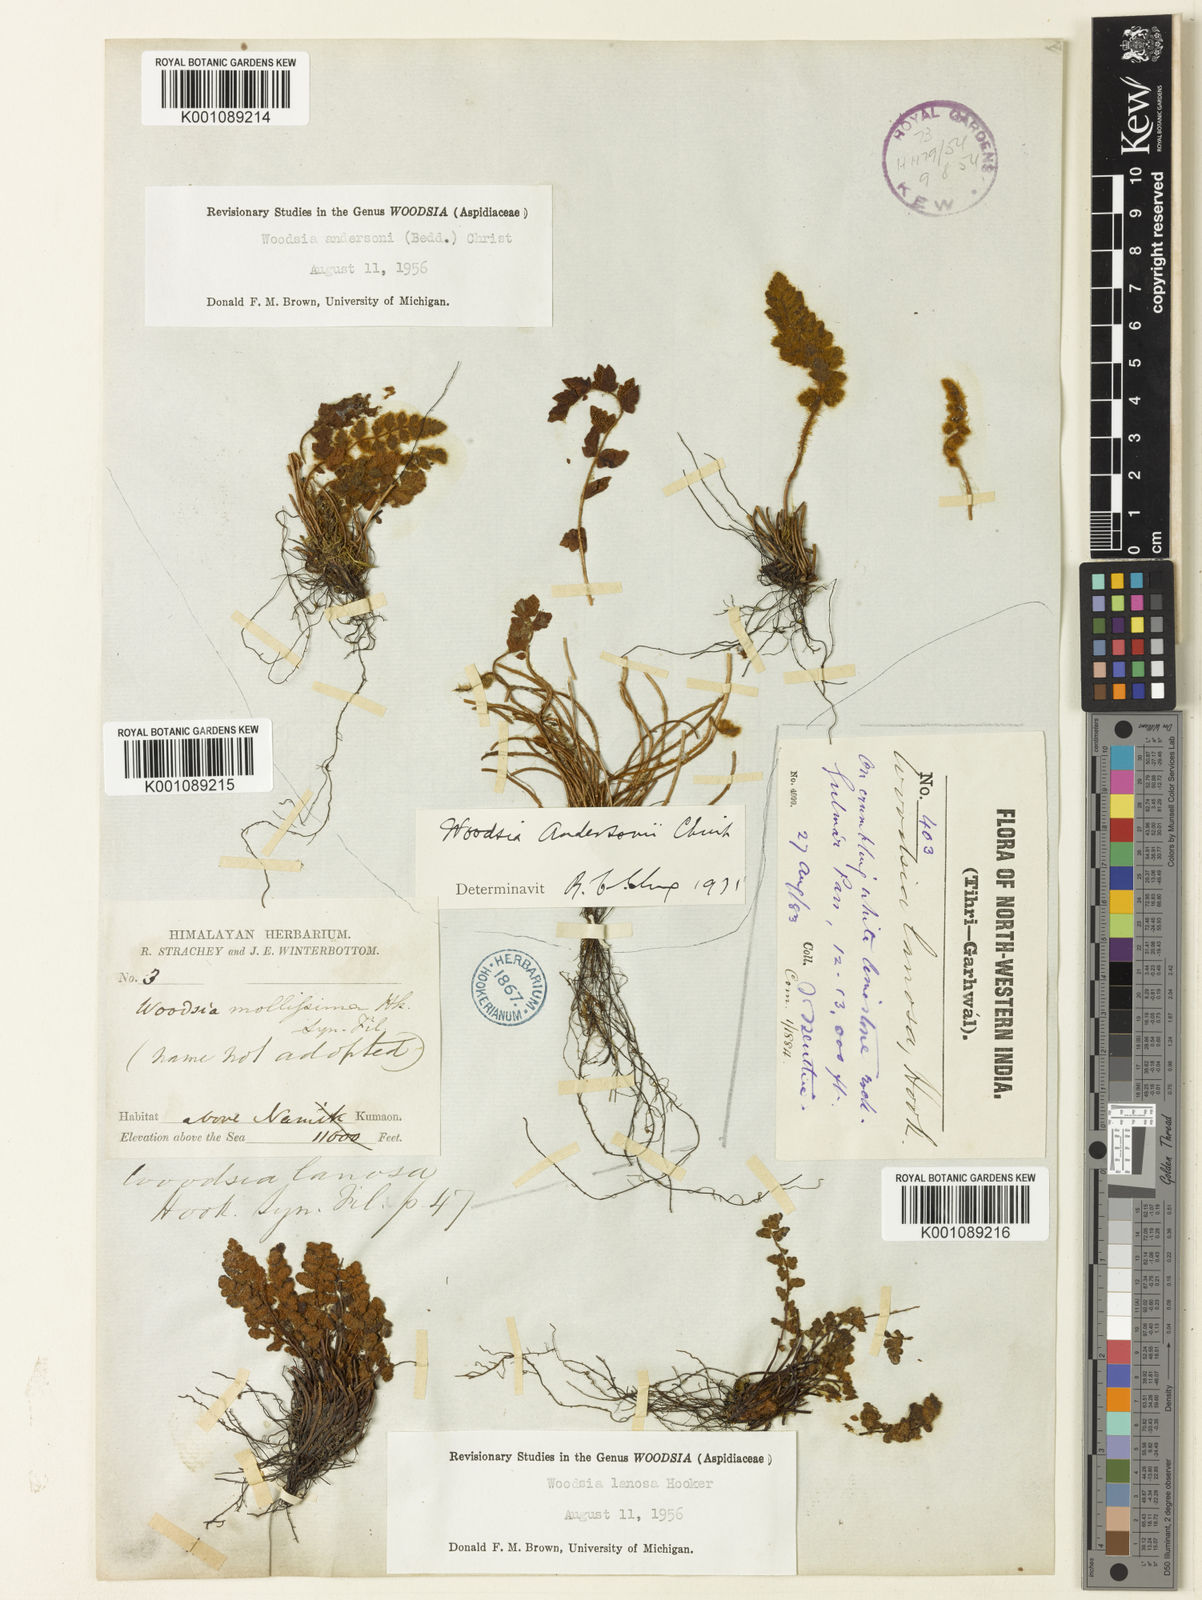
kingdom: Plantae
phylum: Tracheophyta
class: Polypodiopsida
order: Polypodiales
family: Woodsiaceae
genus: Woodsia
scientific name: Woodsia lanosa
